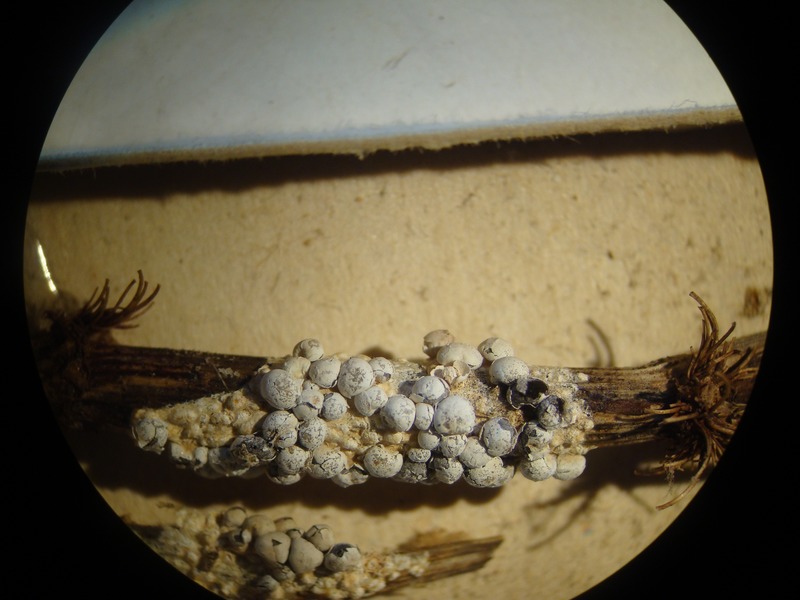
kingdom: Protozoa
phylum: Mycetozoa
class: Myxomycetes
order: Physarales
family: Didymiaceae
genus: Diderma
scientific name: Diderma niveum
